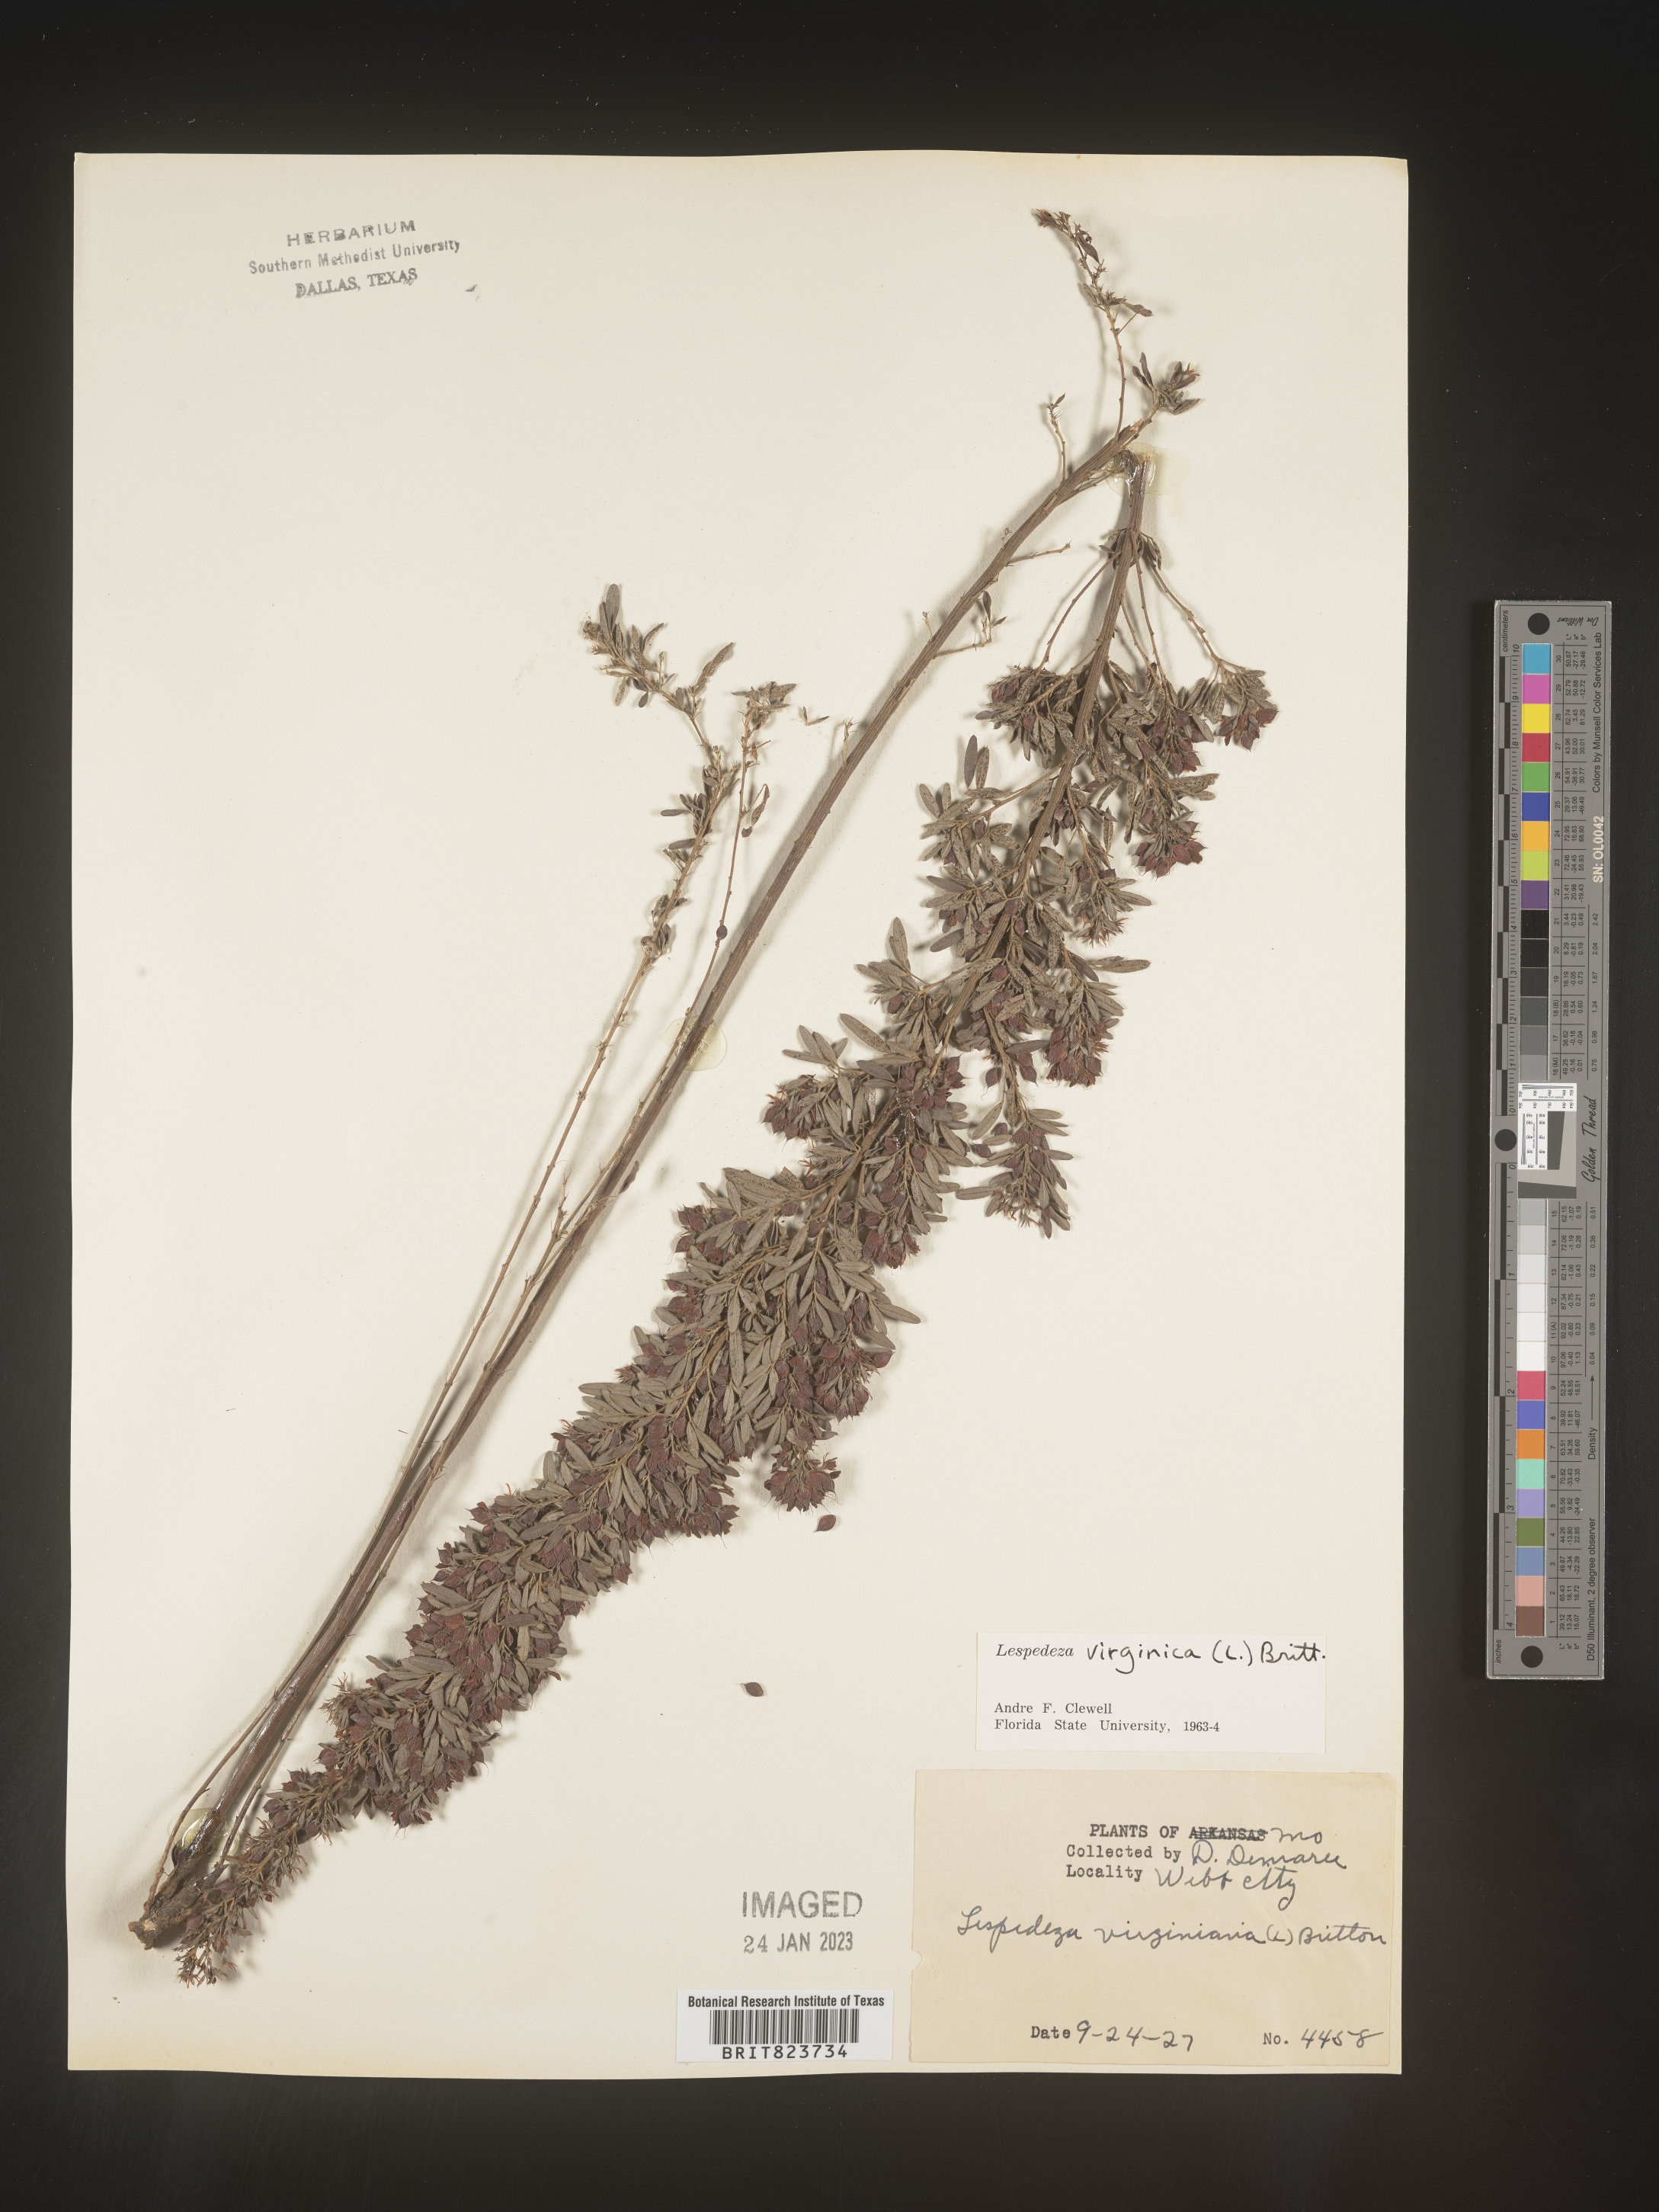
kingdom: Plantae
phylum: Tracheophyta
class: Magnoliopsida
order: Fabales
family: Fabaceae
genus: Lespedeza
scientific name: Lespedeza virginica
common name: Slender bush-clover
